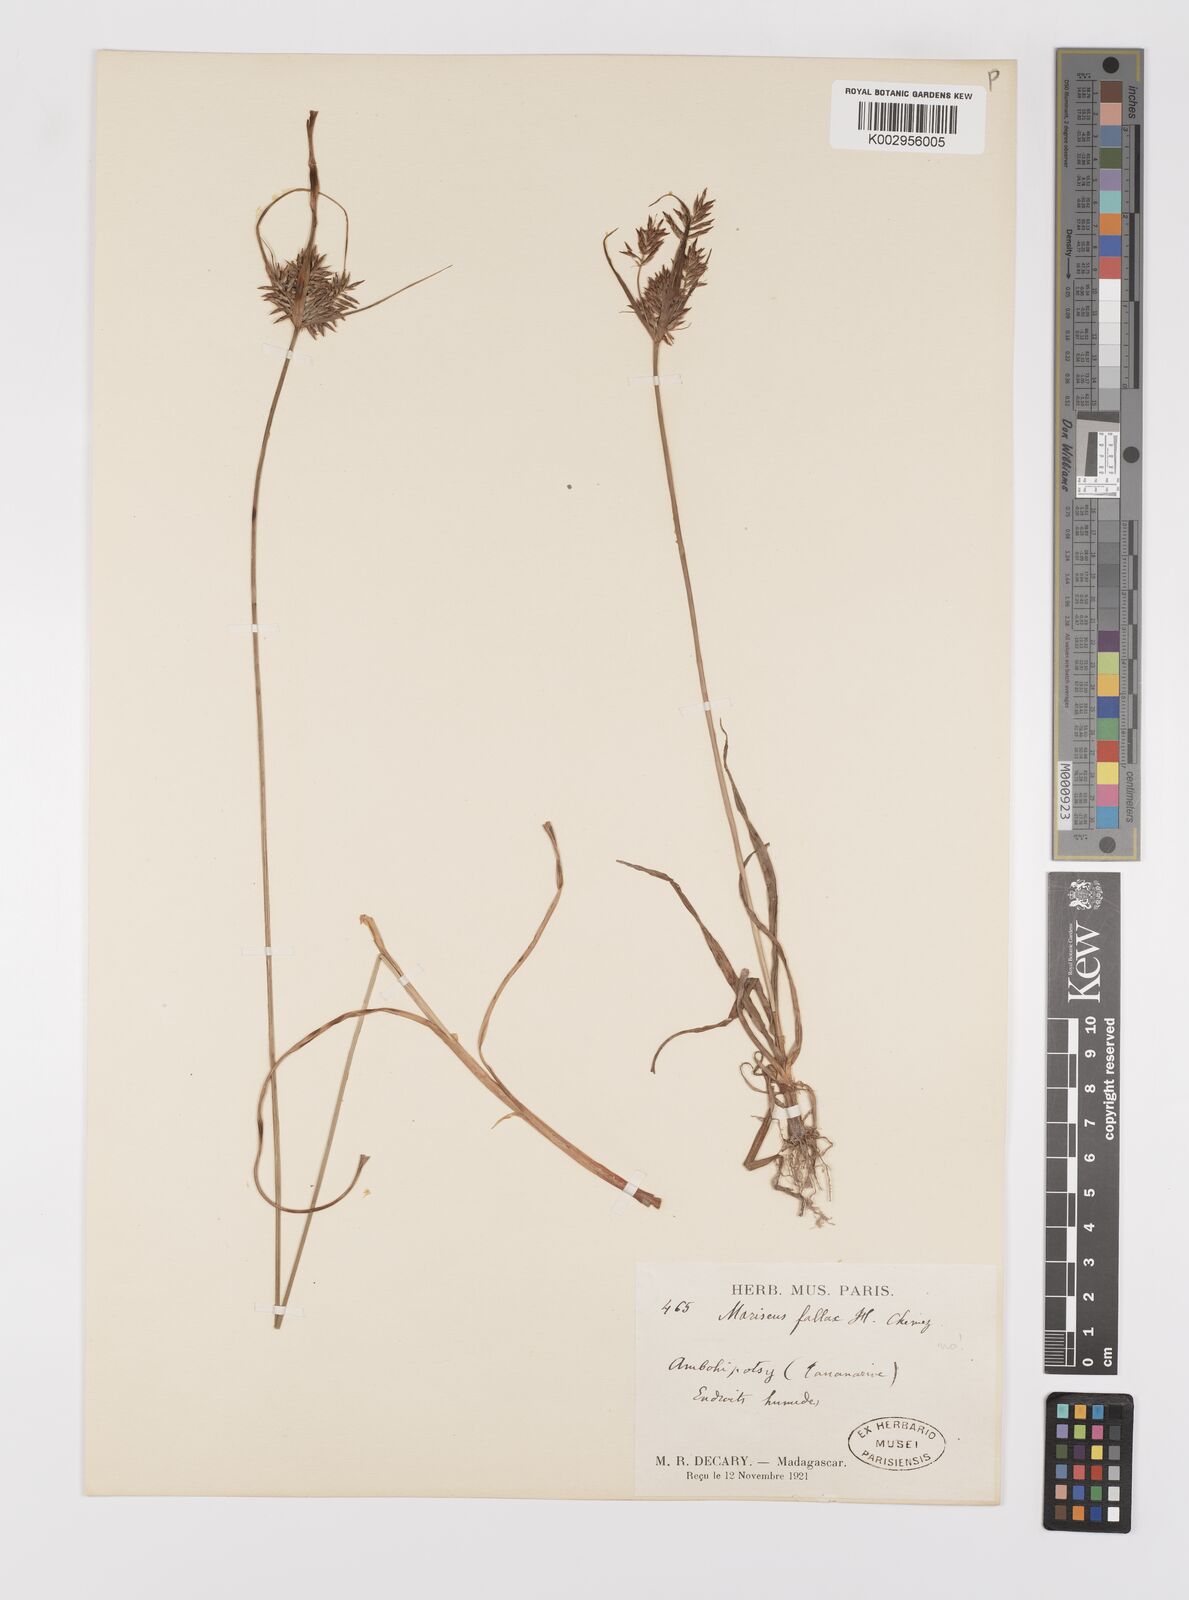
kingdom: Plantae
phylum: Tracheophyta
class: Liliopsida
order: Poales
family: Cyperaceae
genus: Cyperus
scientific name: Cyperus impubes
